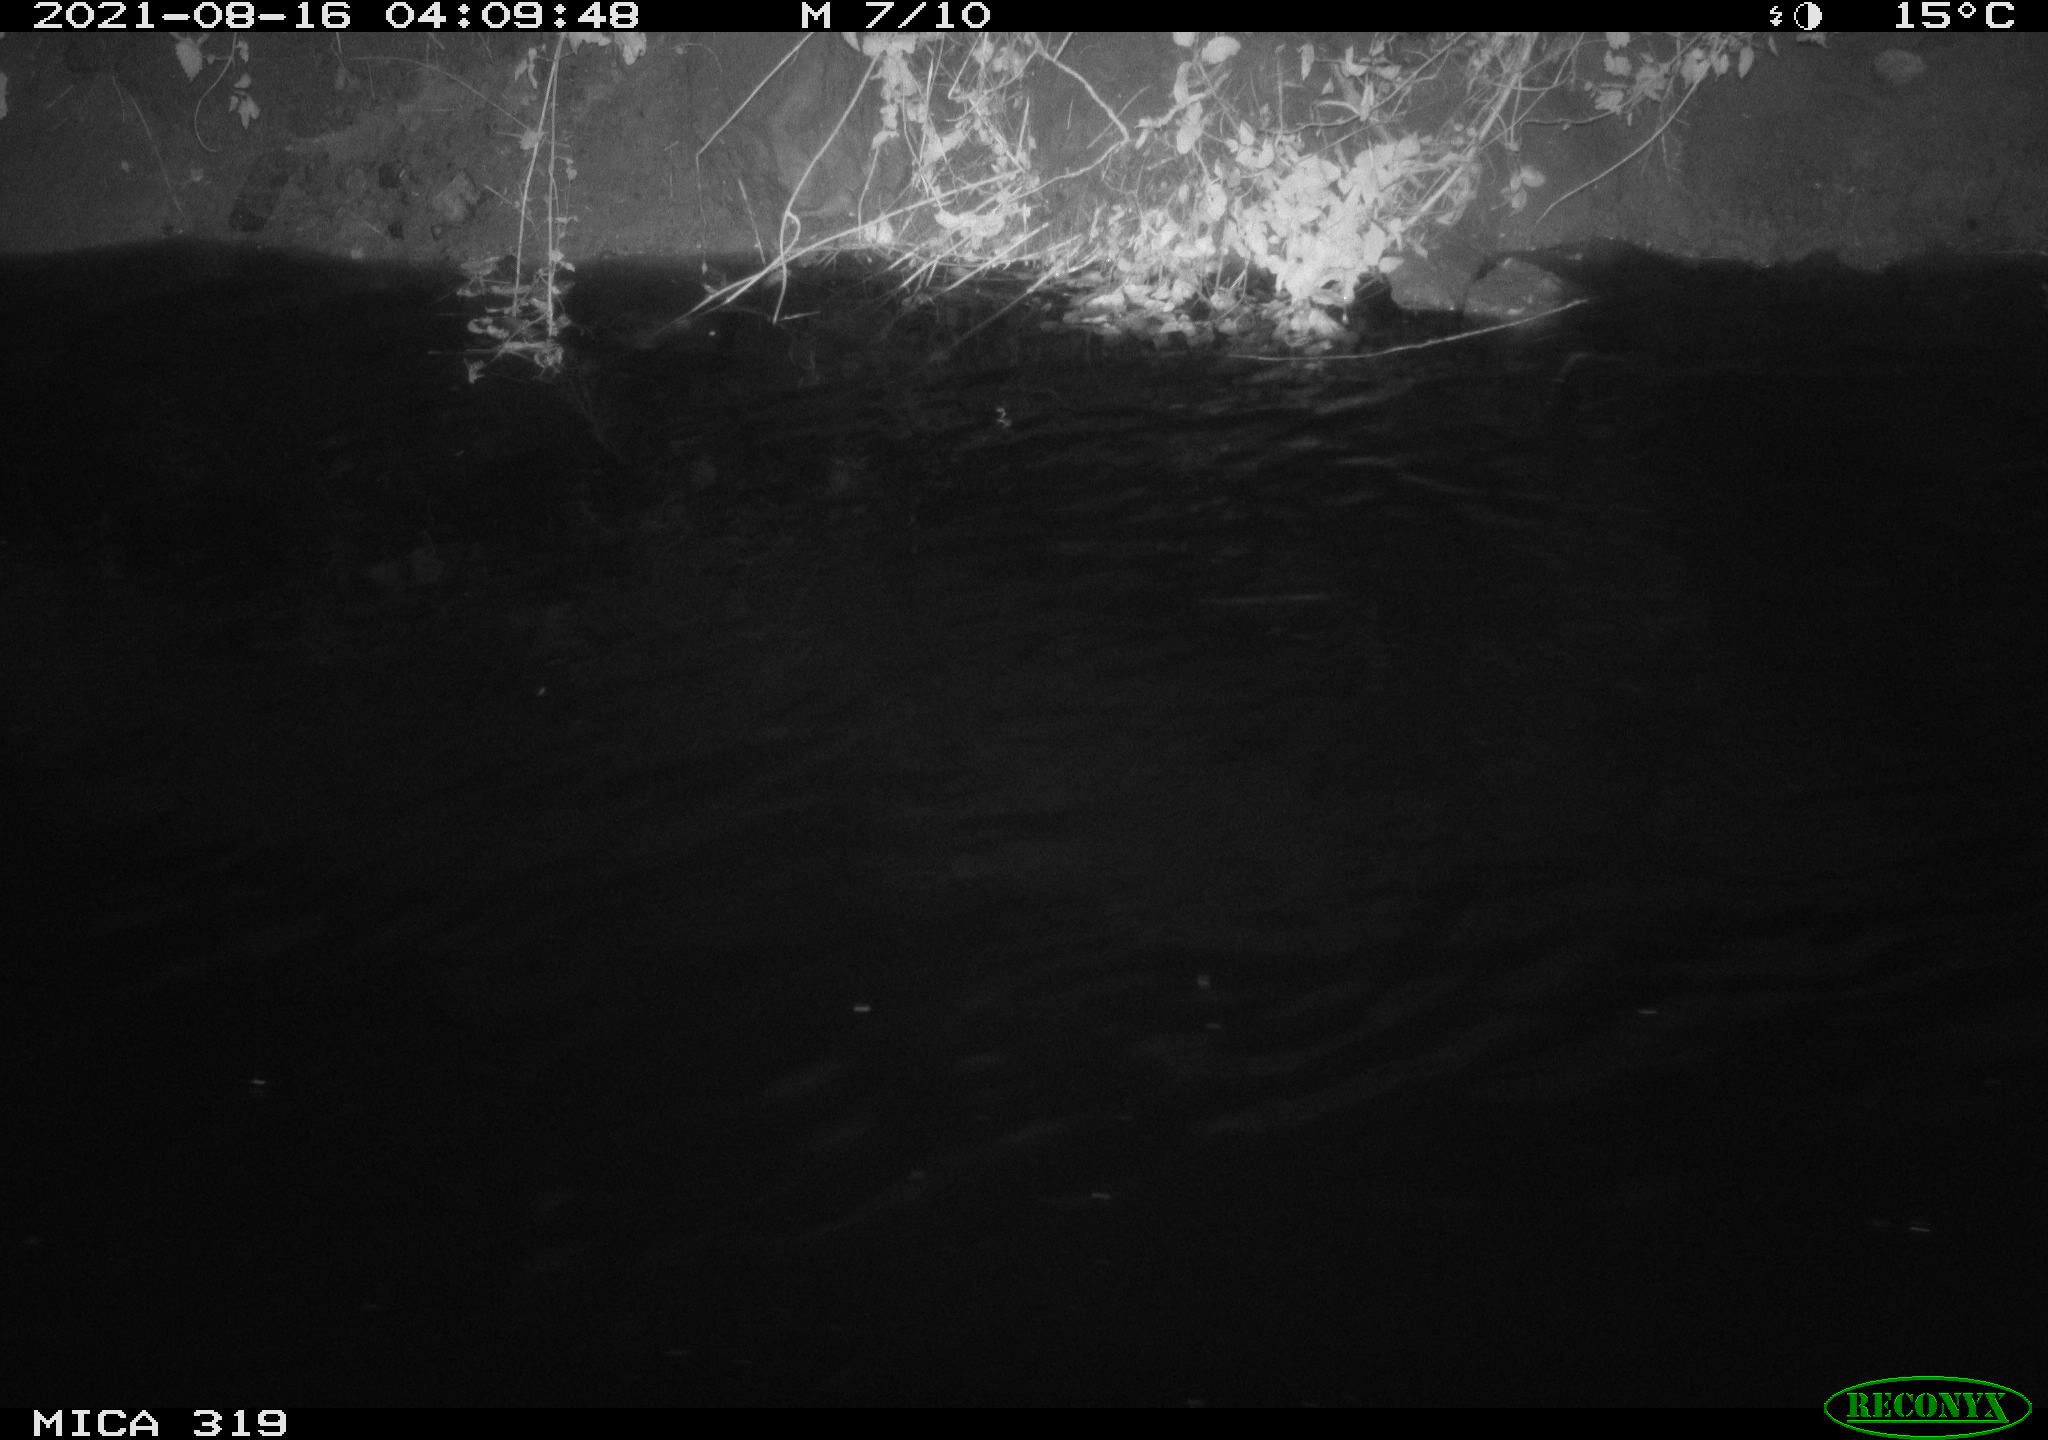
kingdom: Animalia
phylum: Chordata
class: Aves
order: Anseriformes
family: Anatidae
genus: Anas
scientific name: Anas platyrhynchos
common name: Mallard
